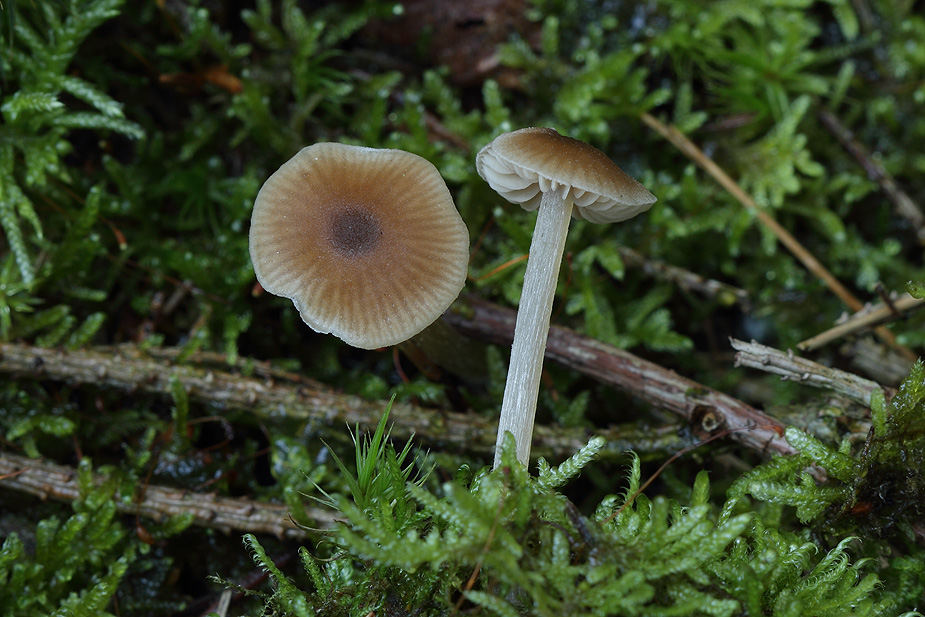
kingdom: Fungi
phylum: Basidiomycota
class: Agaricomycetes
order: Agaricales
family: Entolomataceae
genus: Entoloma
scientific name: Entoloma cetratum
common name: voks-rødblad
